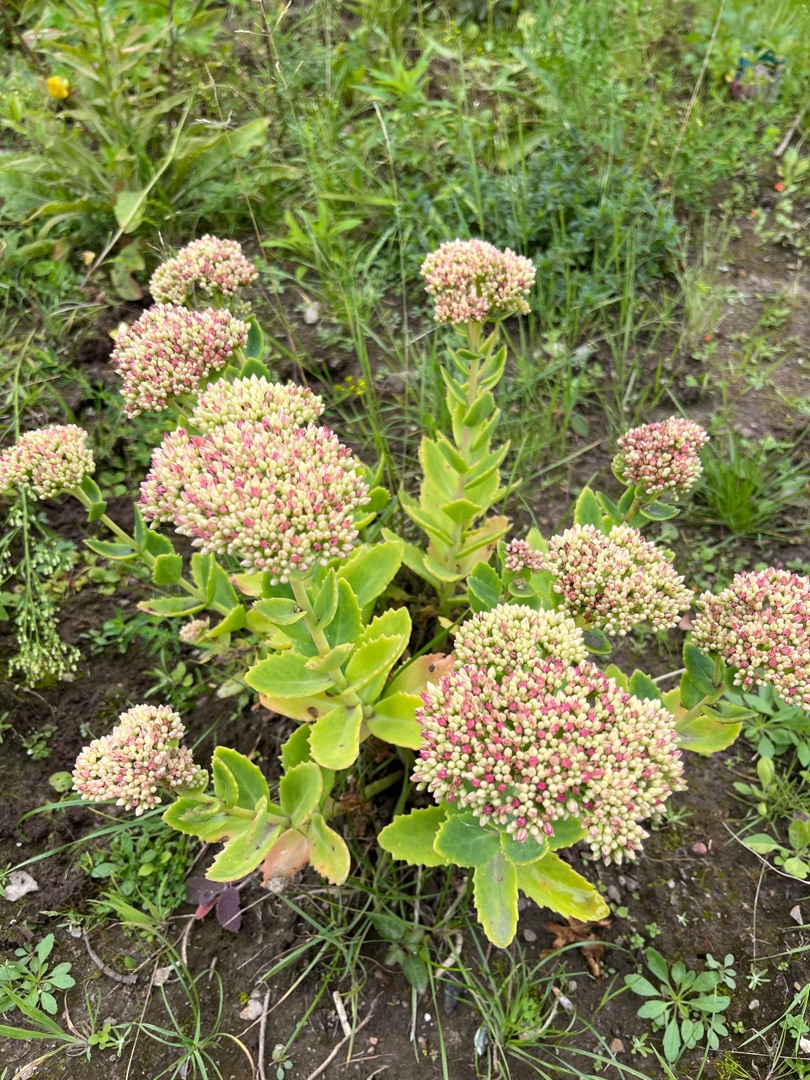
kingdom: Plantae
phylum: Tracheophyta
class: Magnoliopsida
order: Saxifragales
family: Crassulaceae
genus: Hylotelephium
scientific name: Hylotelephium telephium
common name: Rød sankthansurt
